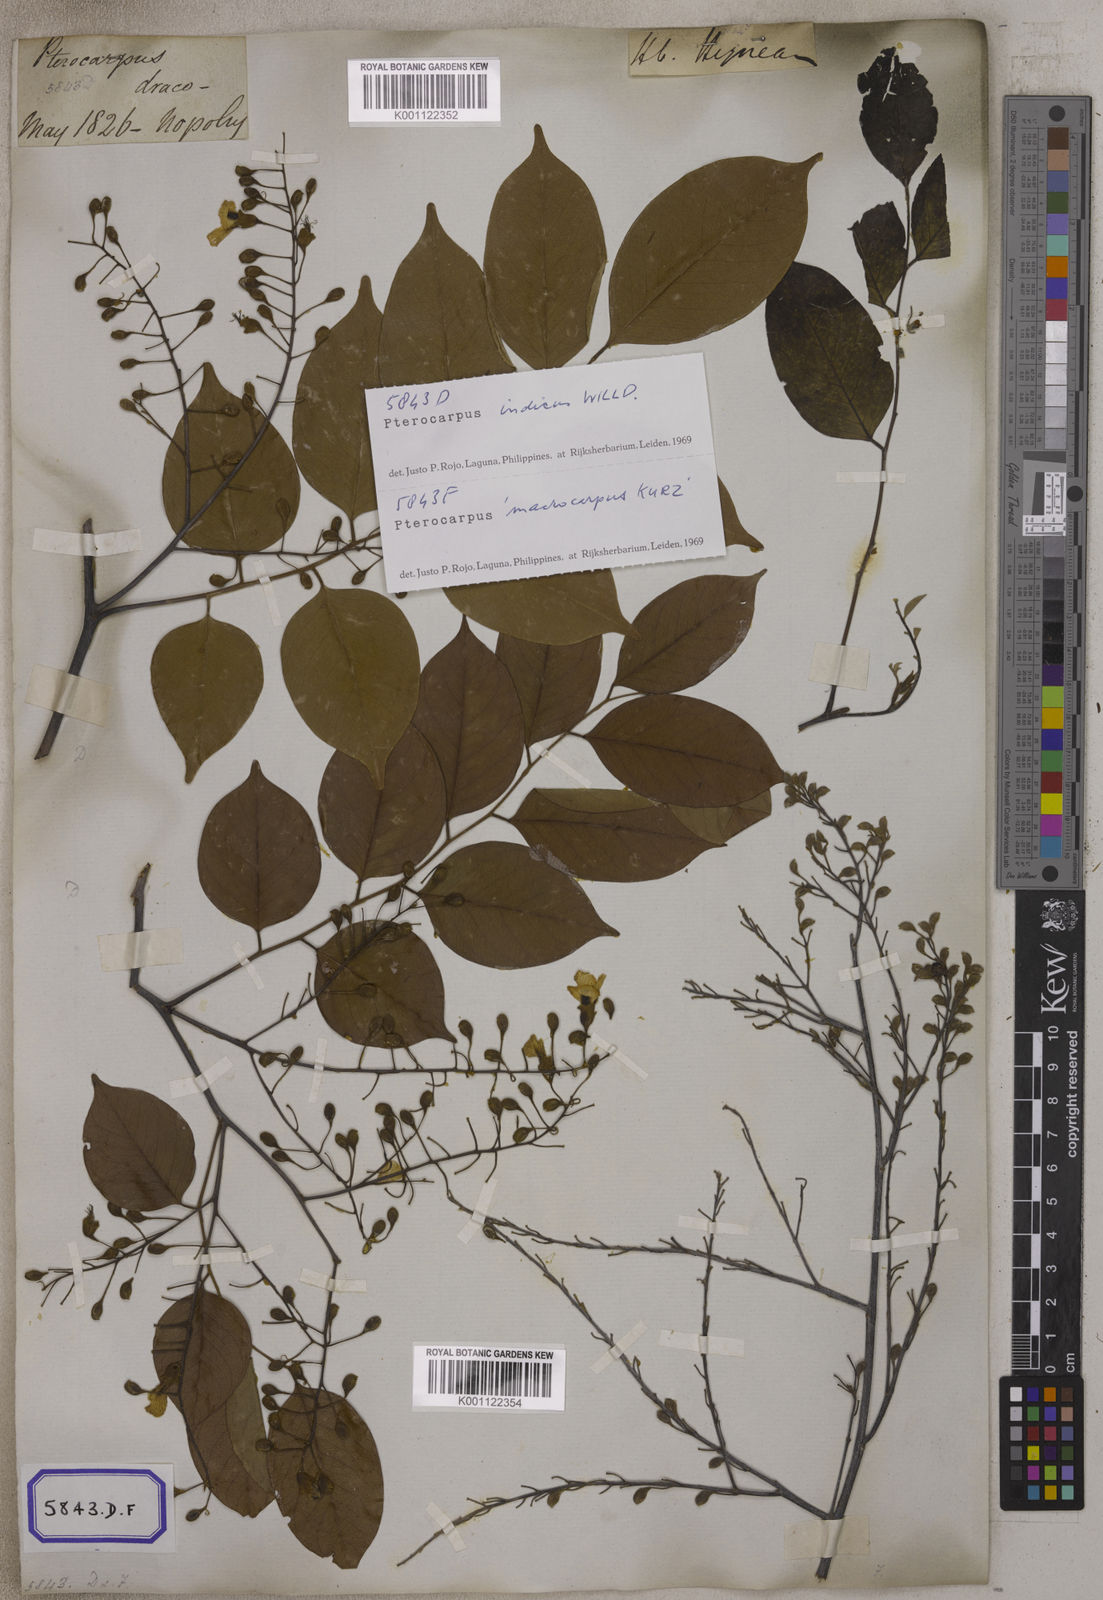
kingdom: Plantae
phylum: Tracheophyta
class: Magnoliopsida
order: Fabales
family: Fabaceae
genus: Pterocarpus
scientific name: Pterocarpus
